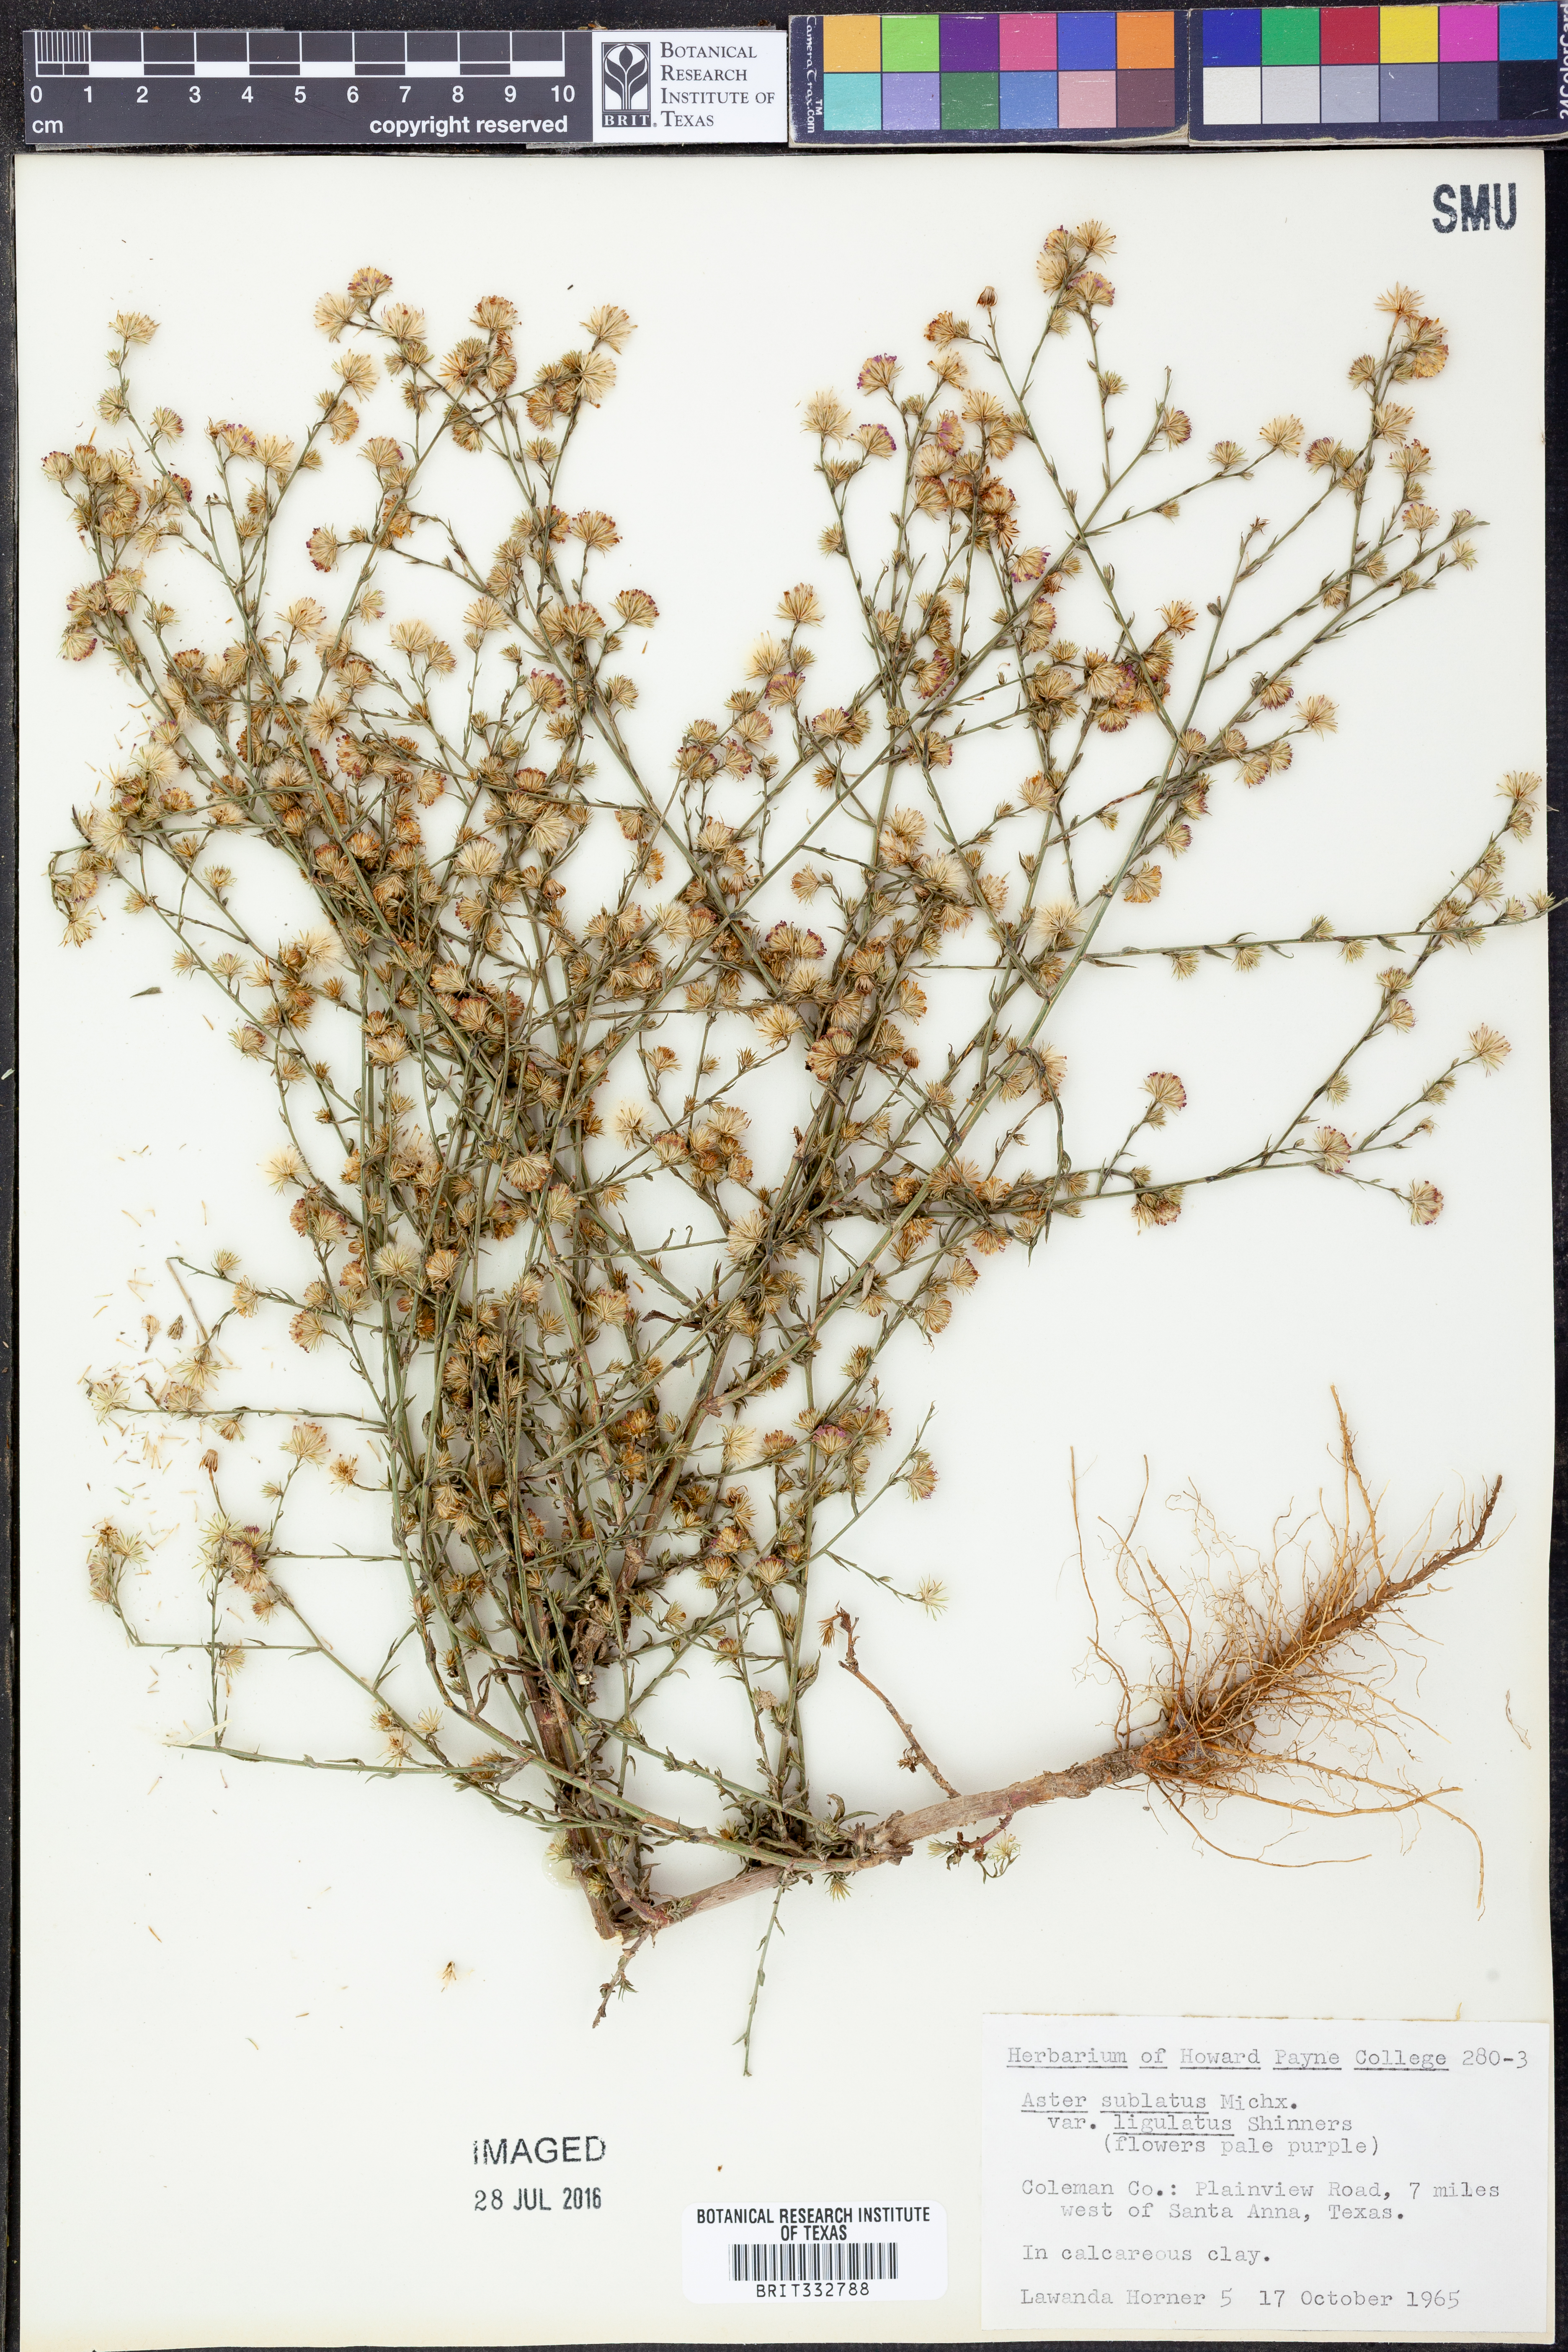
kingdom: Plantae
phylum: Tracheophyta
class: Magnoliopsida
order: Asterales
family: Asteraceae
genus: Symphyotrichum
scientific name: Symphyotrichum divaricatum
